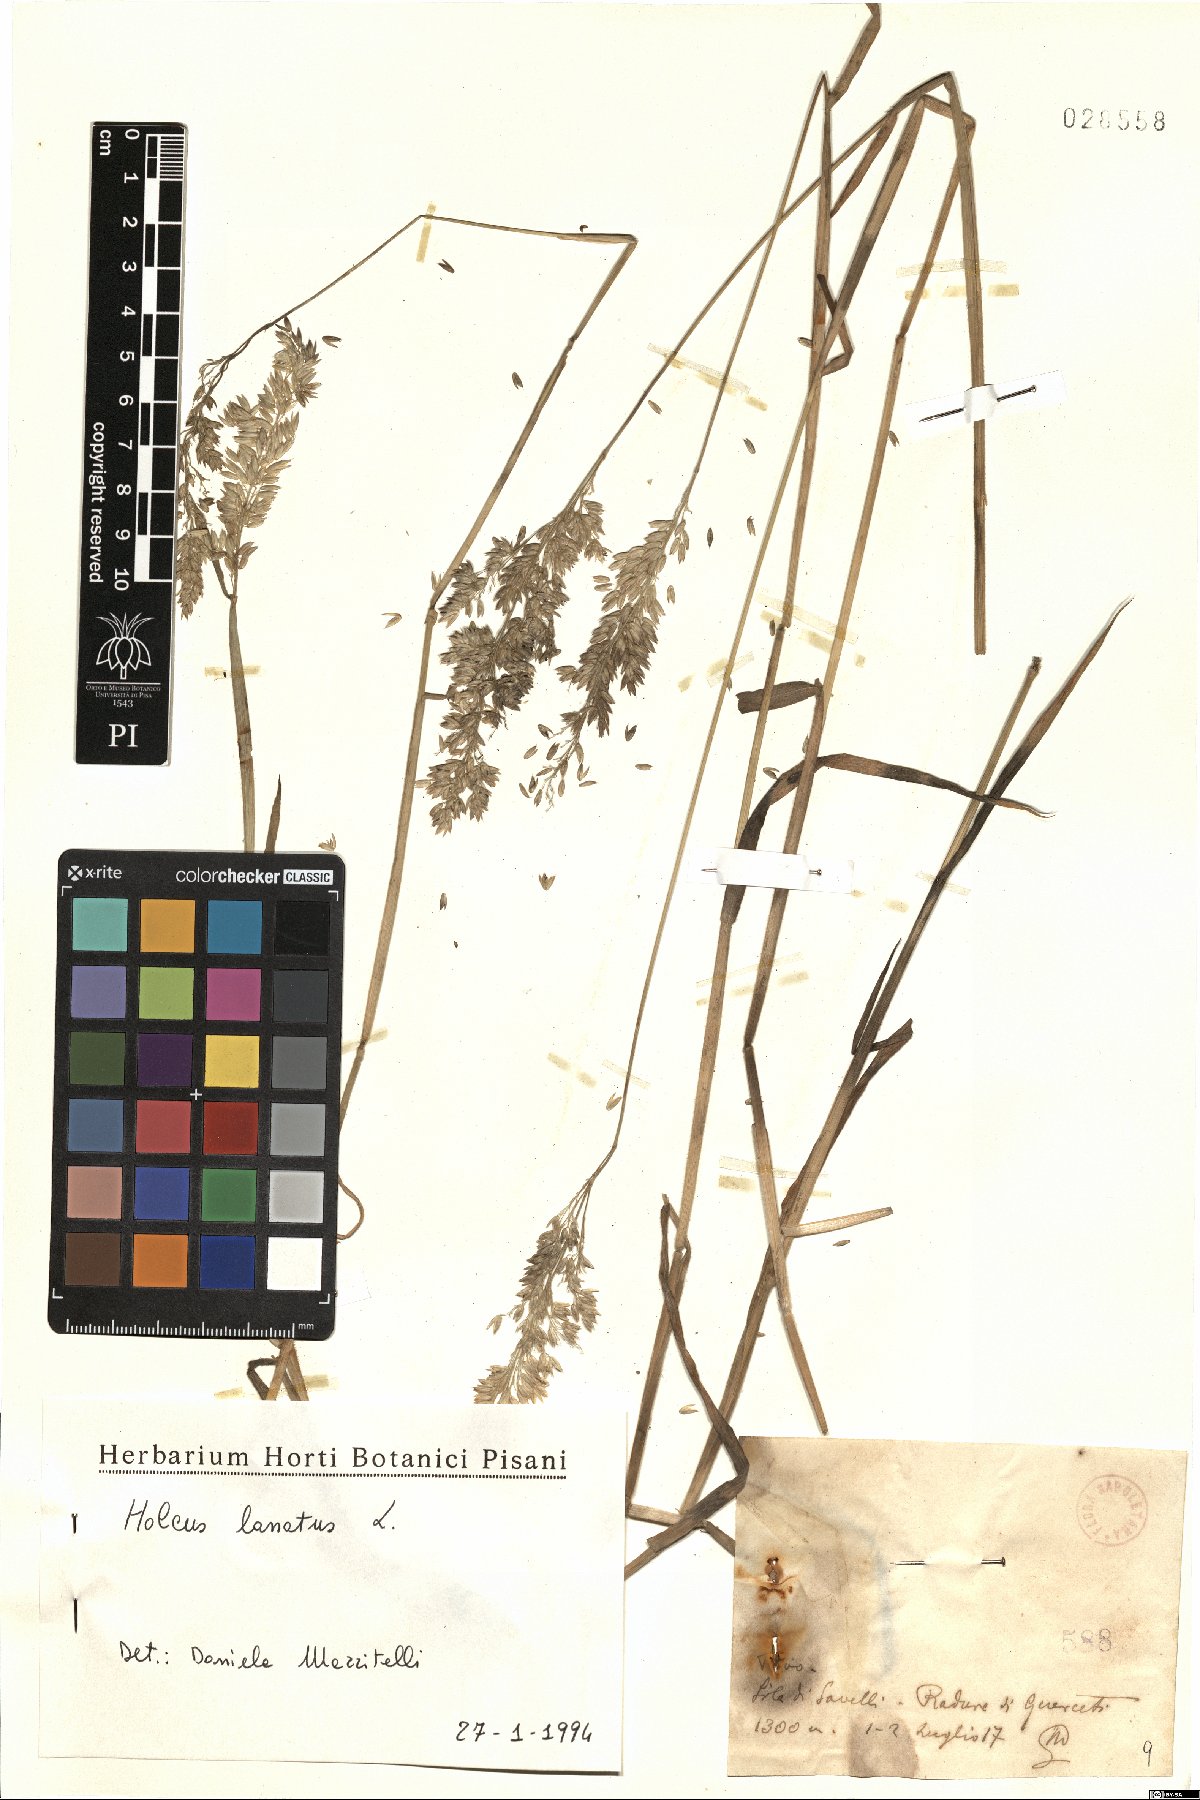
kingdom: Plantae
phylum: Tracheophyta
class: Liliopsida
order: Poales
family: Poaceae
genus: Holcus
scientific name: Holcus lanatus
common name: Yorkshire-fog
